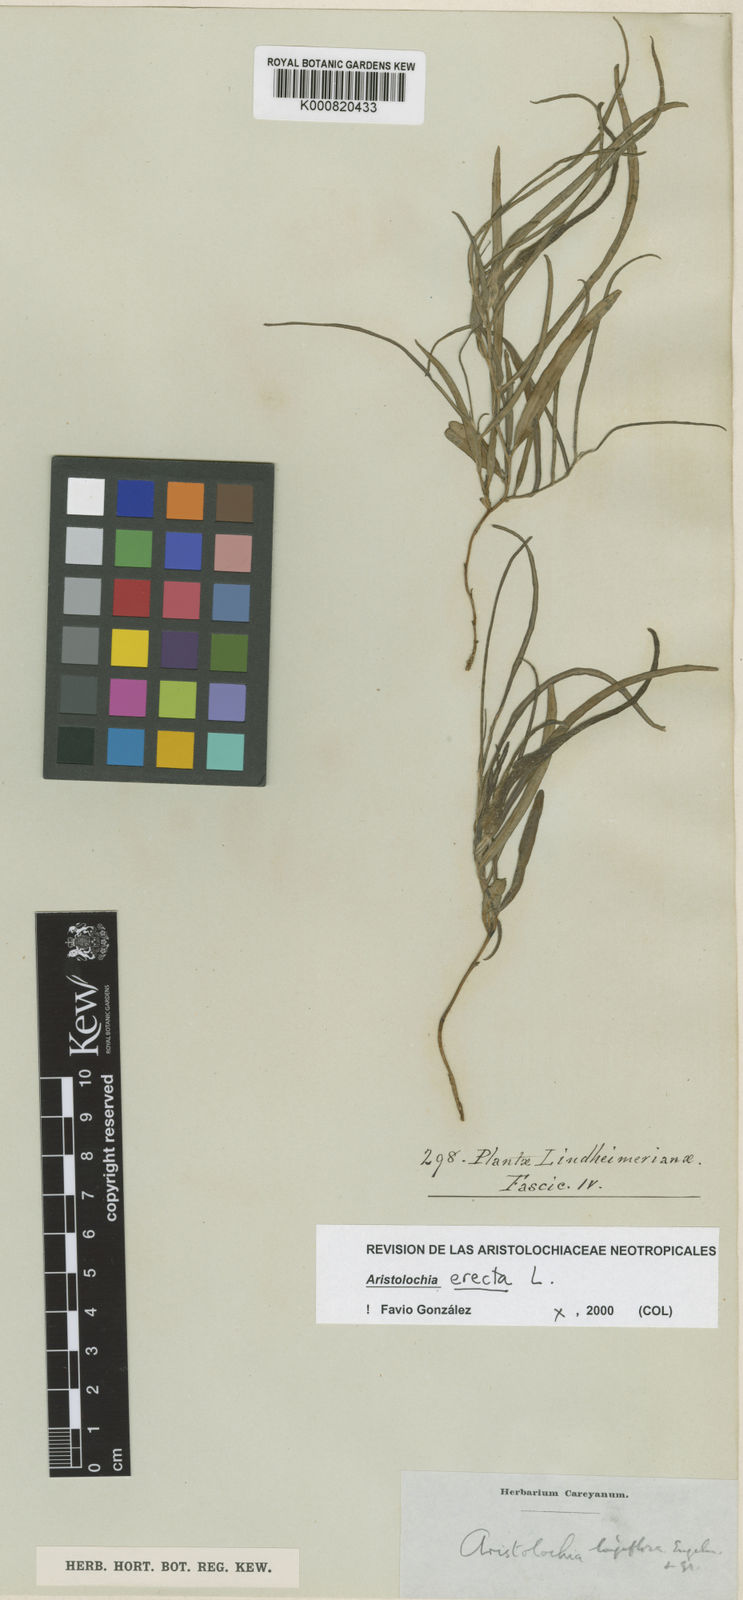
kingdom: Plantae
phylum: Tracheophyta
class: Magnoliopsida
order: Piperales
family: Aristolochiaceae
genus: Aristolochia
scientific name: Aristolochia erecta
